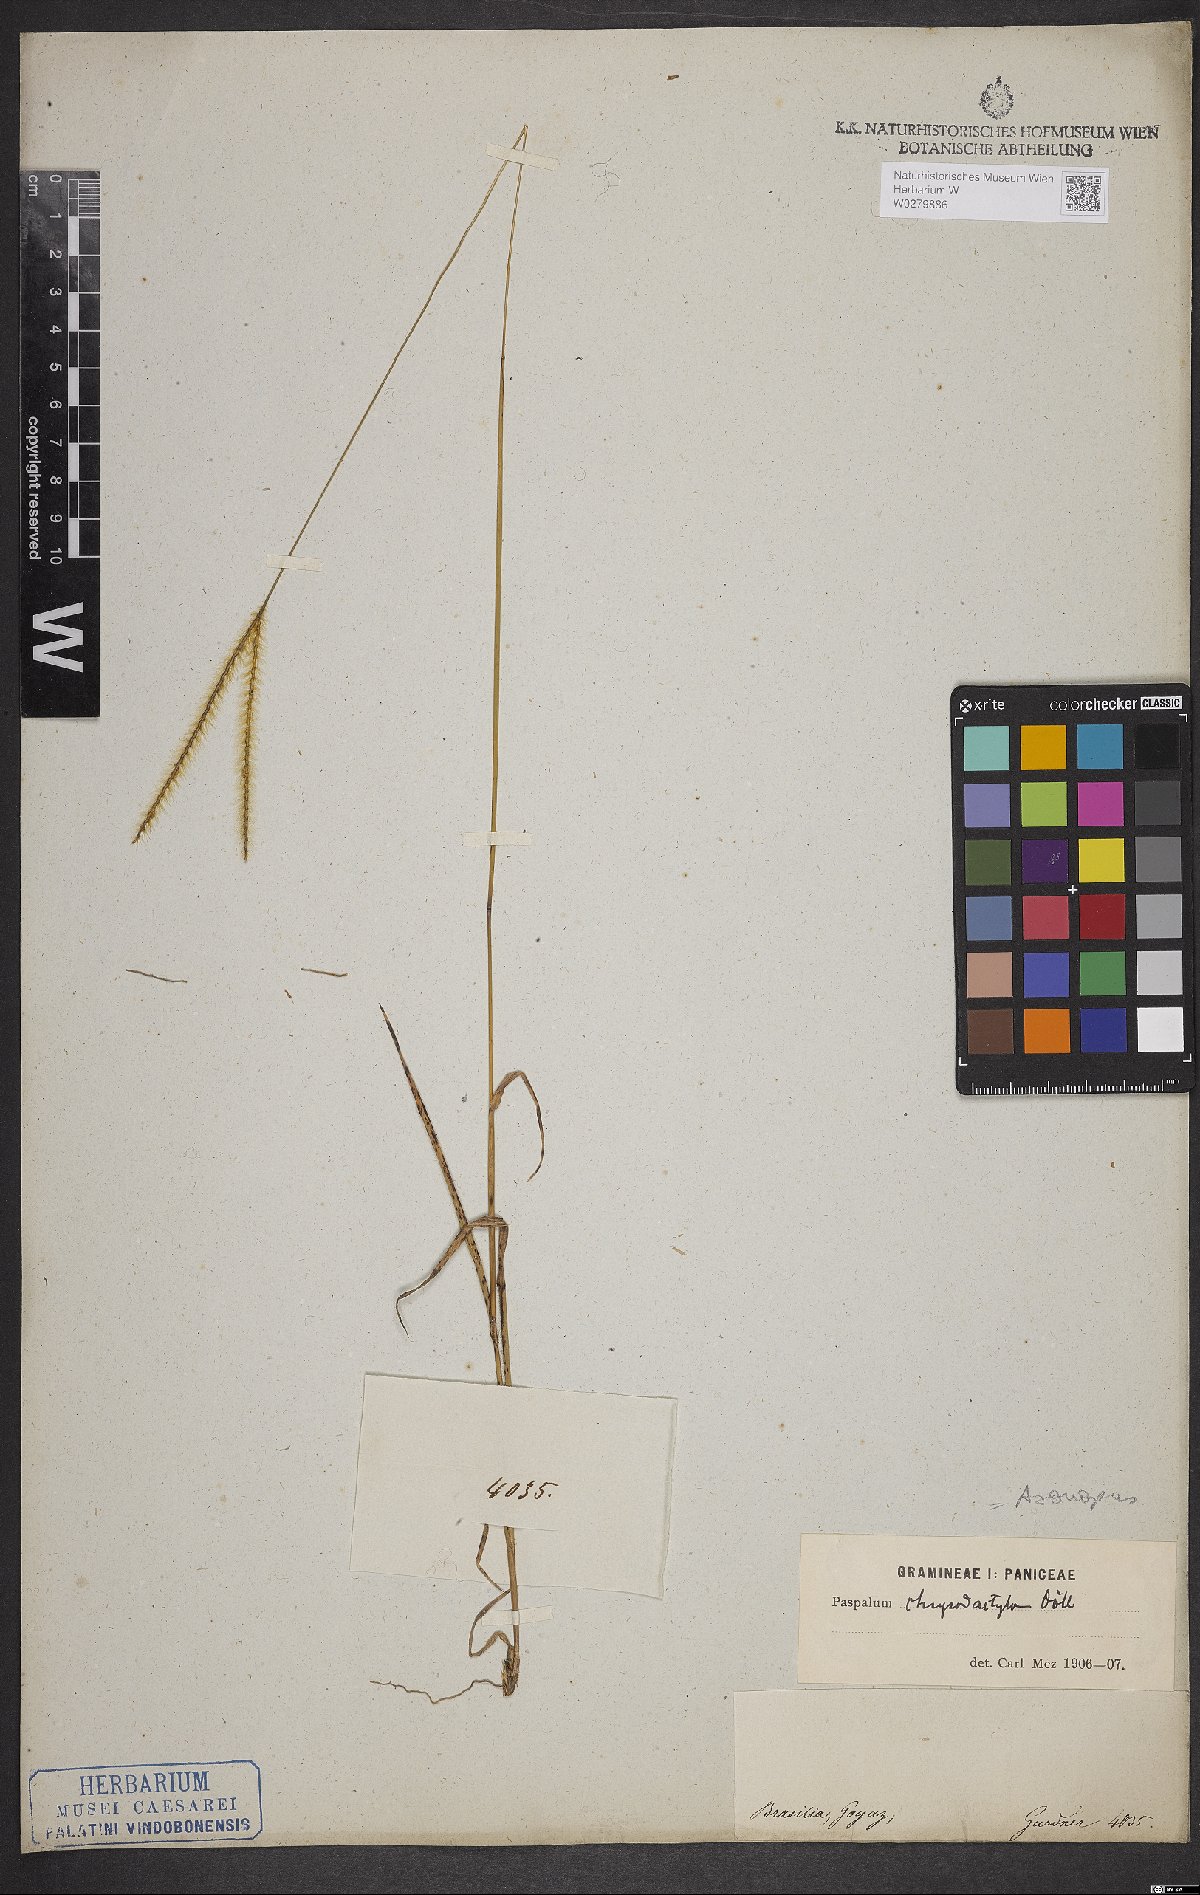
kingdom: Plantae
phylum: Tracheophyta
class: Liliopsida
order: Poales
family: Poaceae
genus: Axonopus
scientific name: Axonopus aureus
